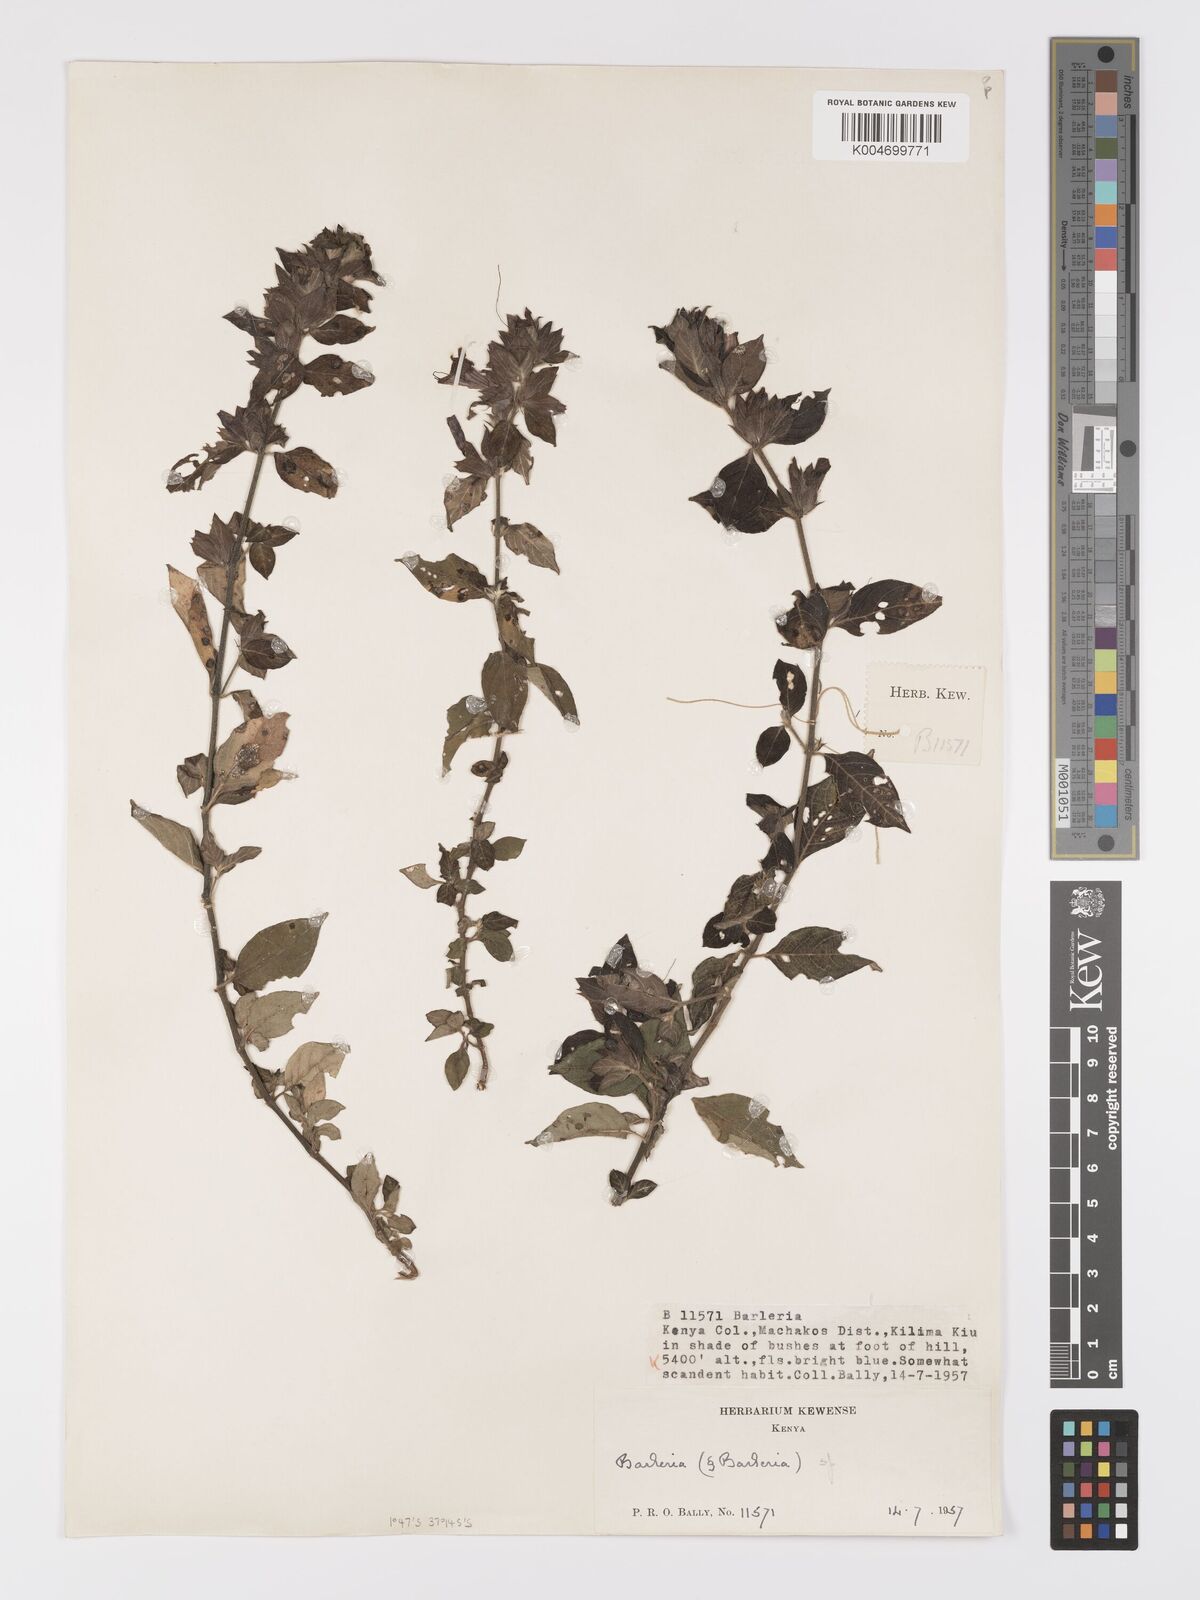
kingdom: Plantae
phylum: Tracheophyta
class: Magnoliopsida
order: Lamiales
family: Acanthaceae
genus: Barleria
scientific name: Barleria ventricosa
